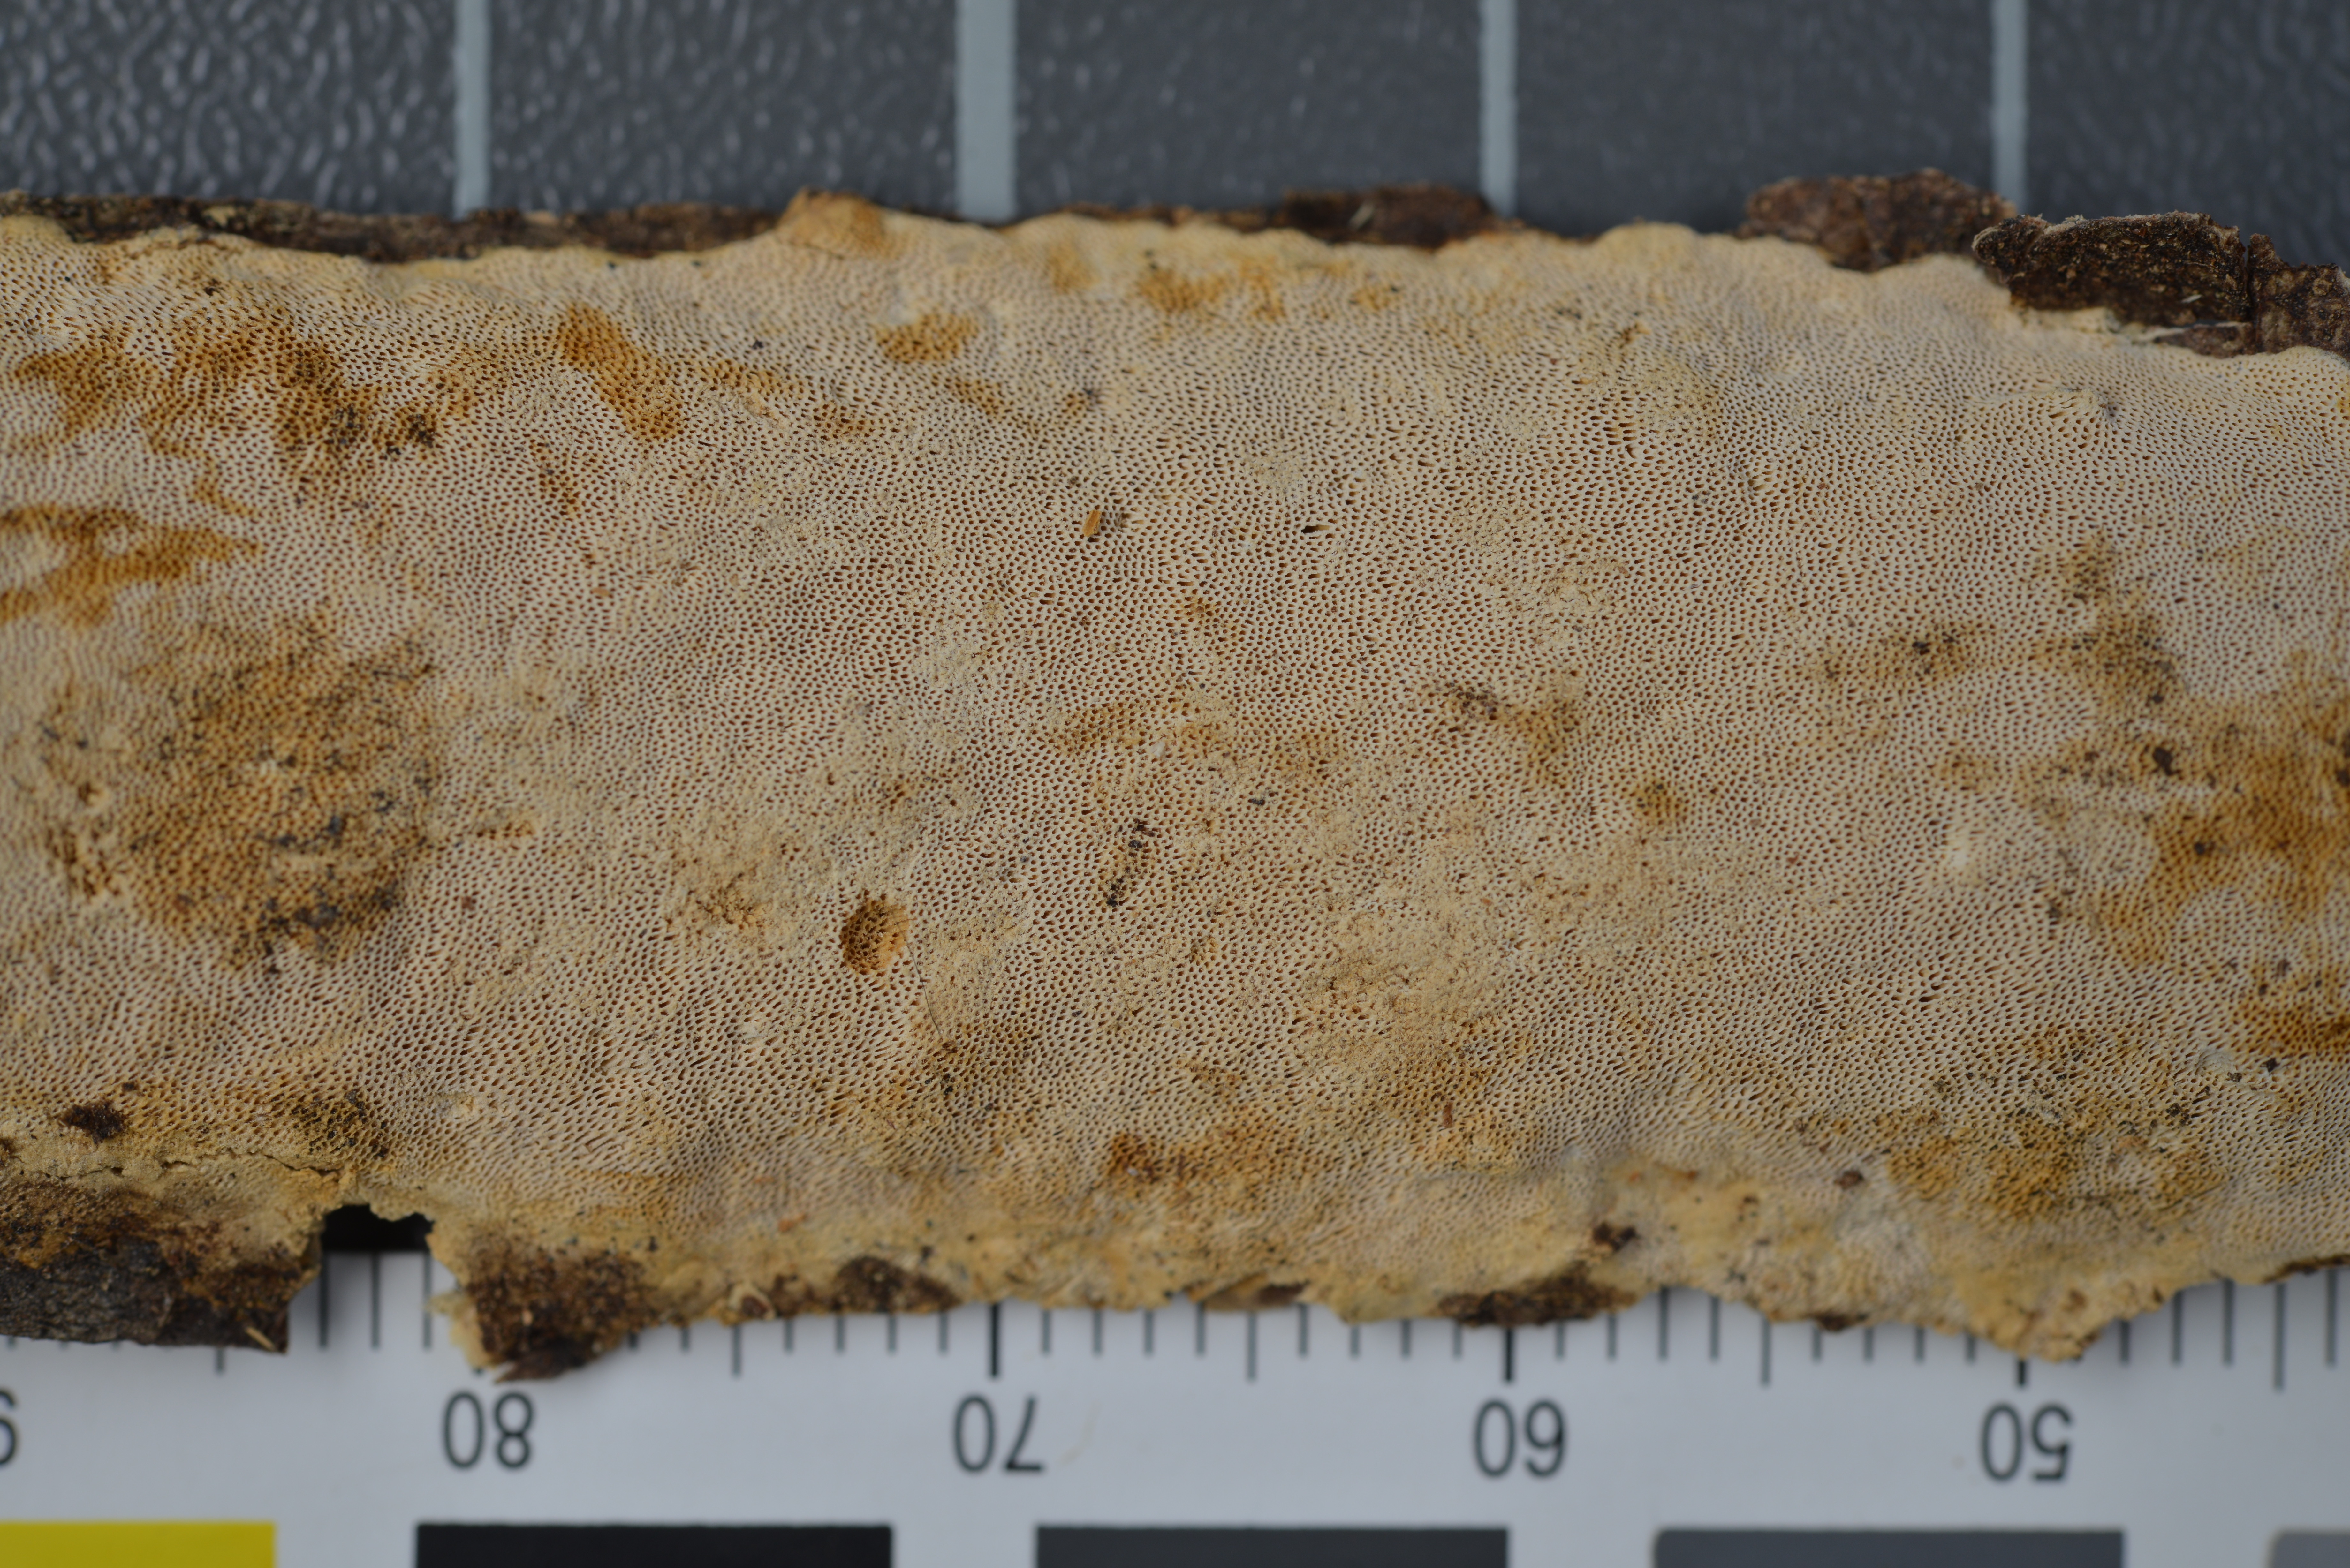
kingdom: Fungi
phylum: Basidiomycota
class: Agaricomycetes
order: Polyporales
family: Polyporaceae
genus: Perenniporia
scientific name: Perenniporia cremeopora
